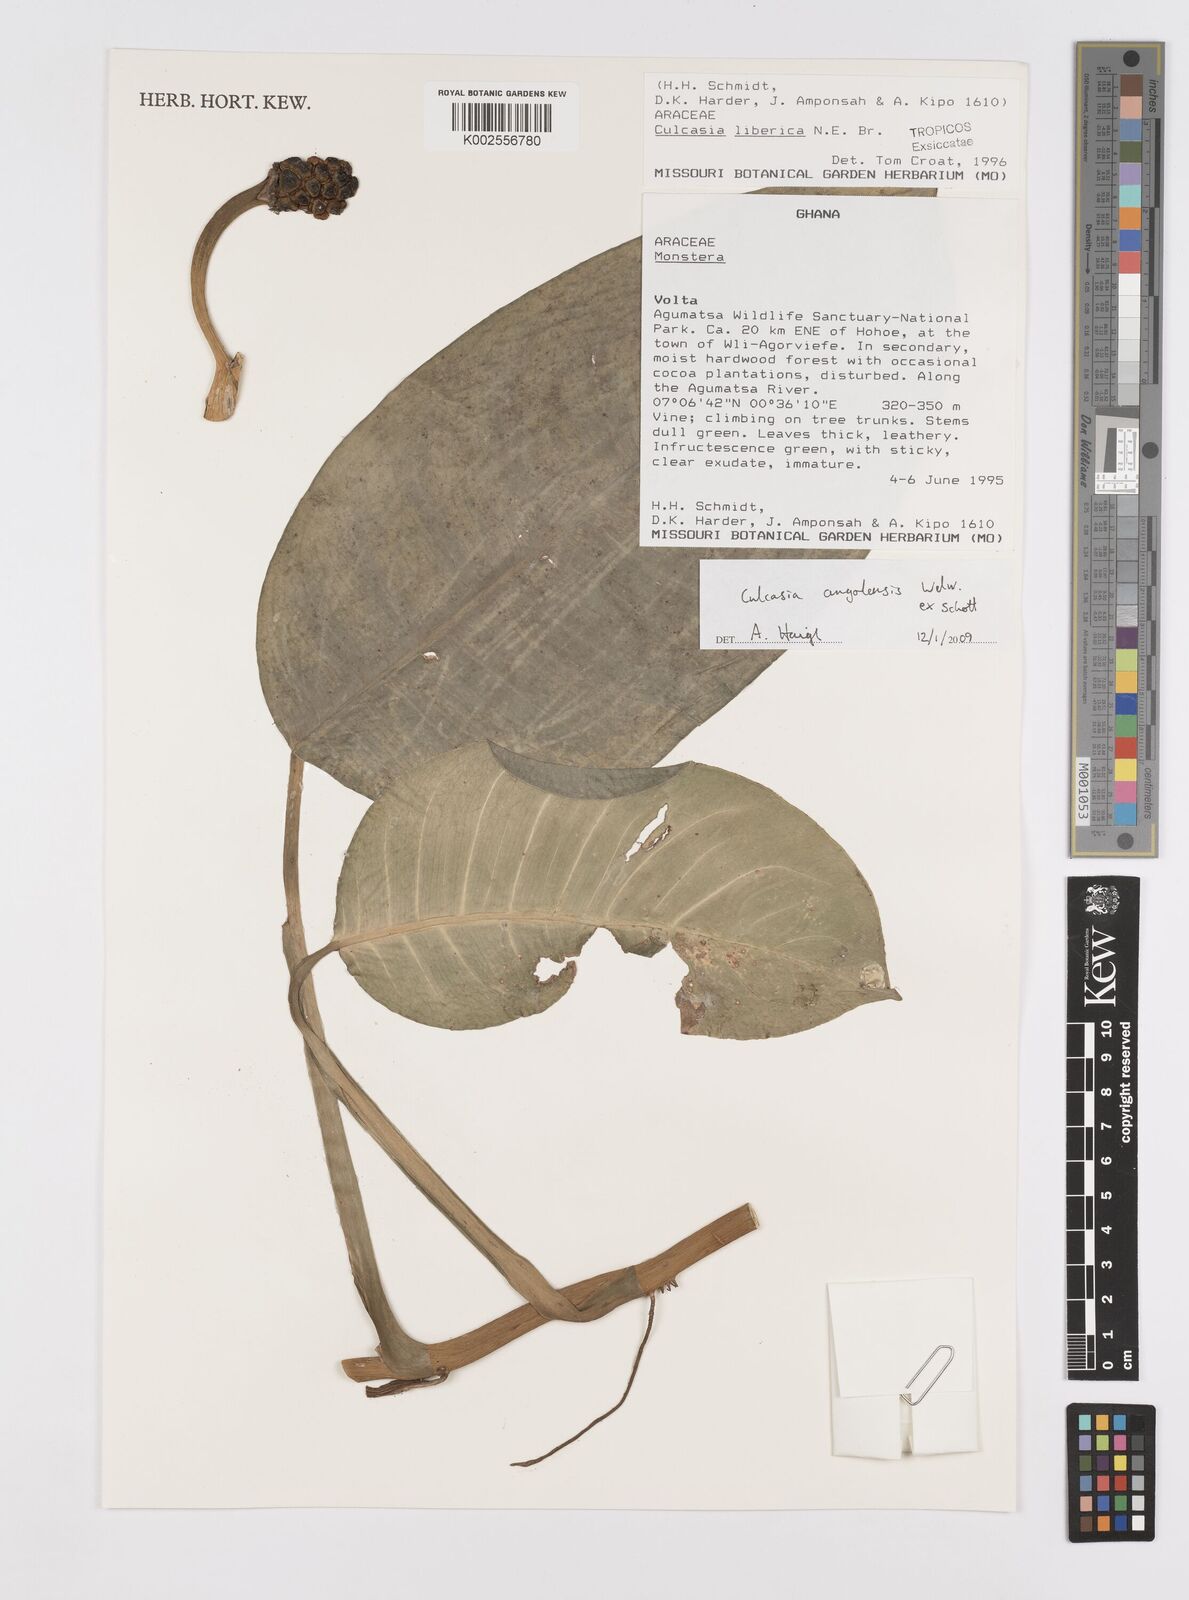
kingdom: Plantae
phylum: Tracheophyta
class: Liliopsida
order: Alismatales
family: Araceae
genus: Culcasia
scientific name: Culcasia angolensis
